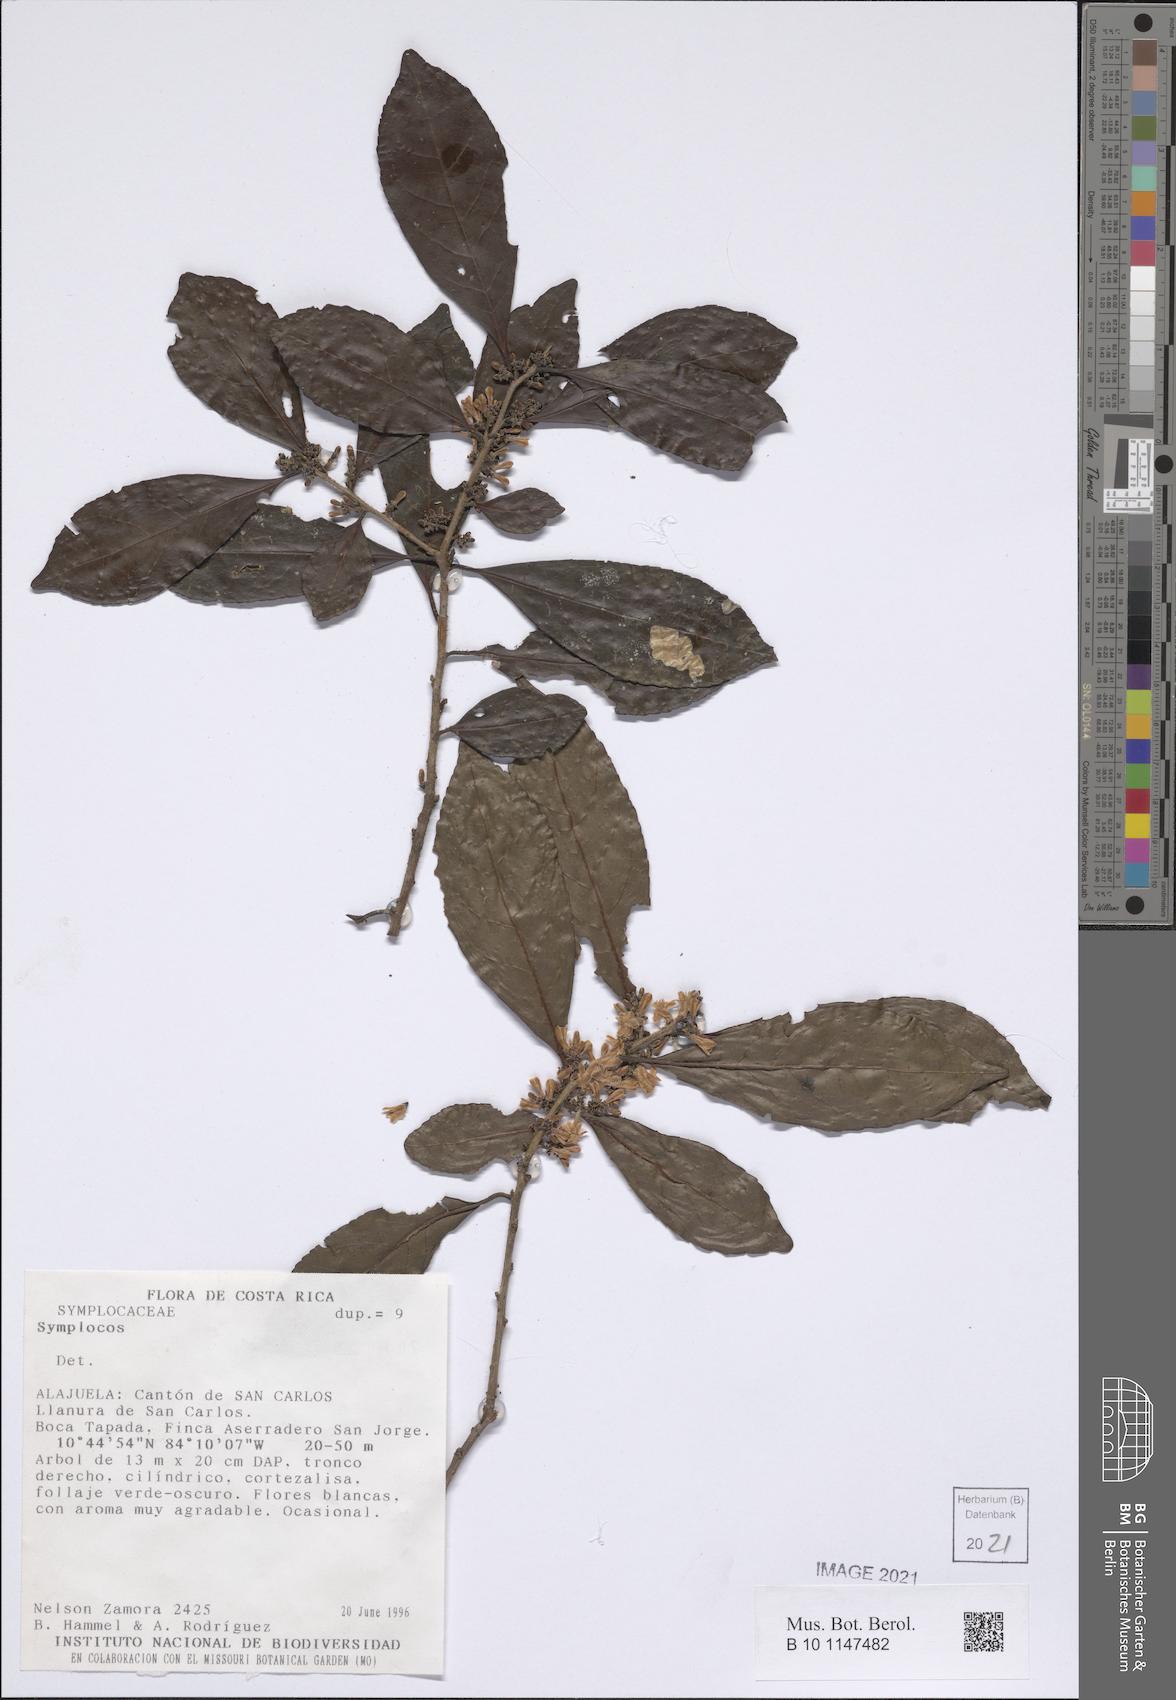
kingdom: Plantae
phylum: Tracheophyta
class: Magnoliopsida
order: Ericales
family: Symplocaceae
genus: Symplocos
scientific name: Symplocos
